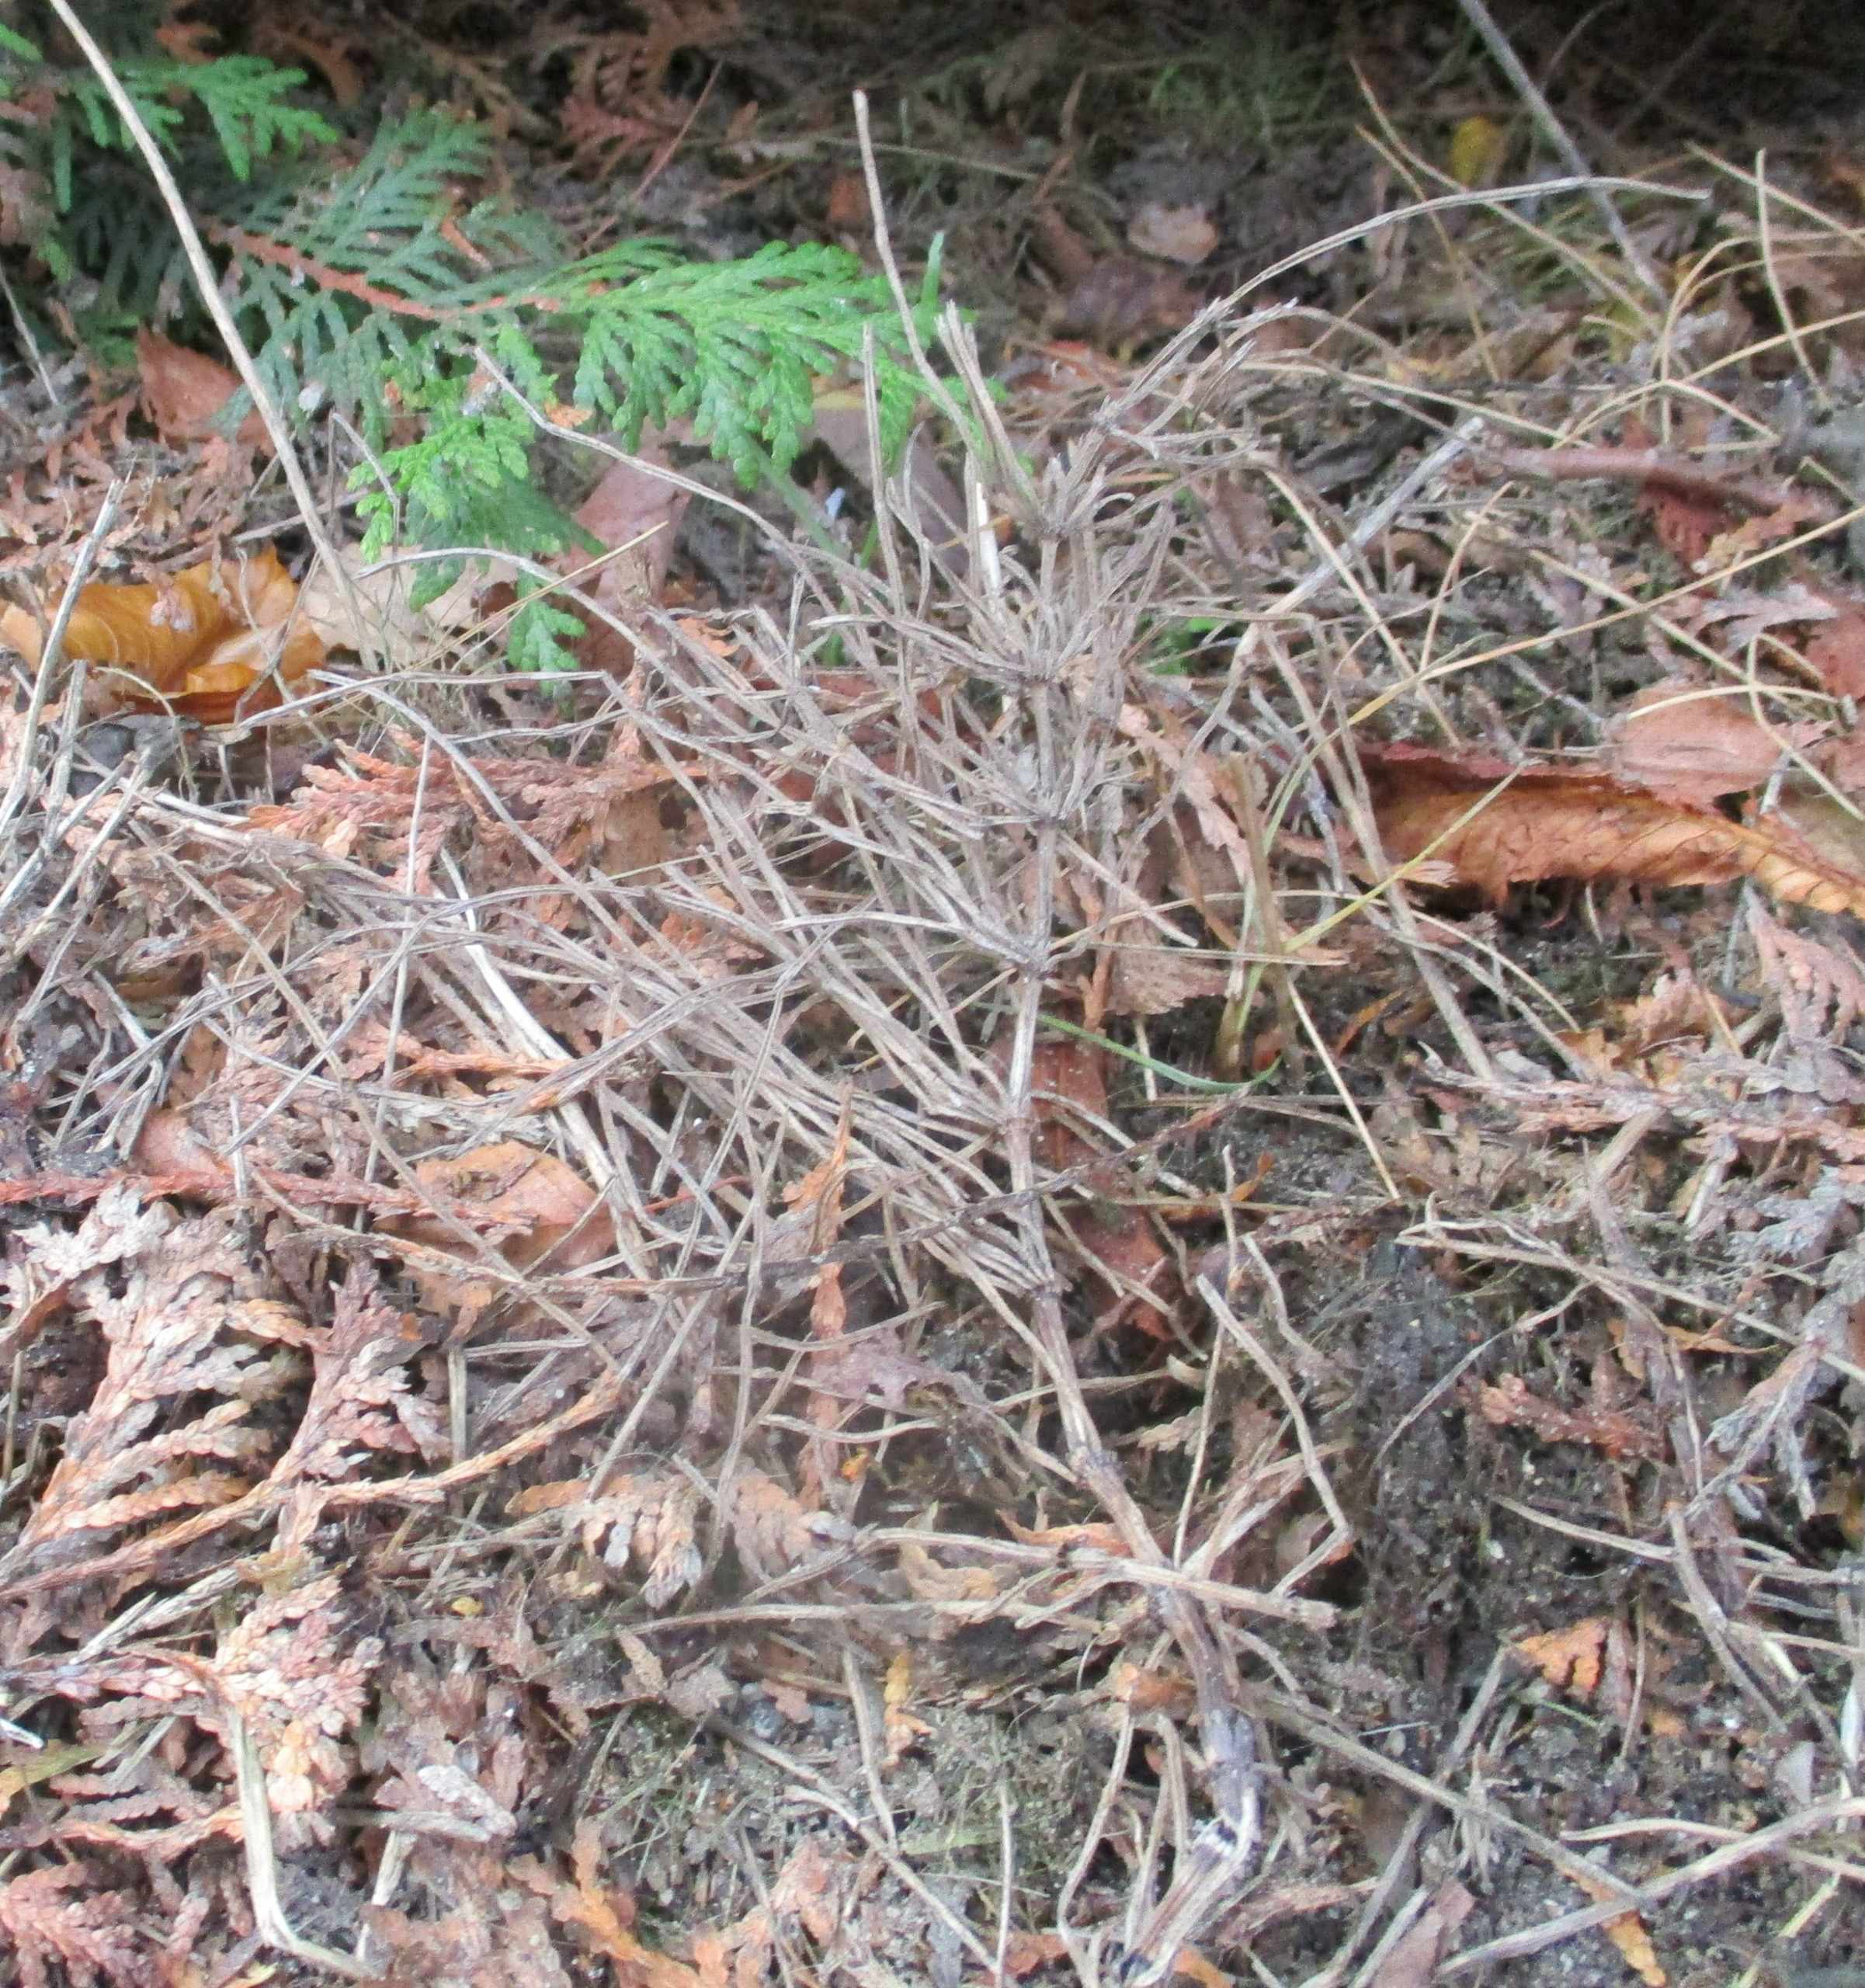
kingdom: Plantae
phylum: Tracheophyta
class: Polypodiopsida
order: Equisetales
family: Equisetaceae
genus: Equisetum
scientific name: Equisetum arvense
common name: Ager-padderok
